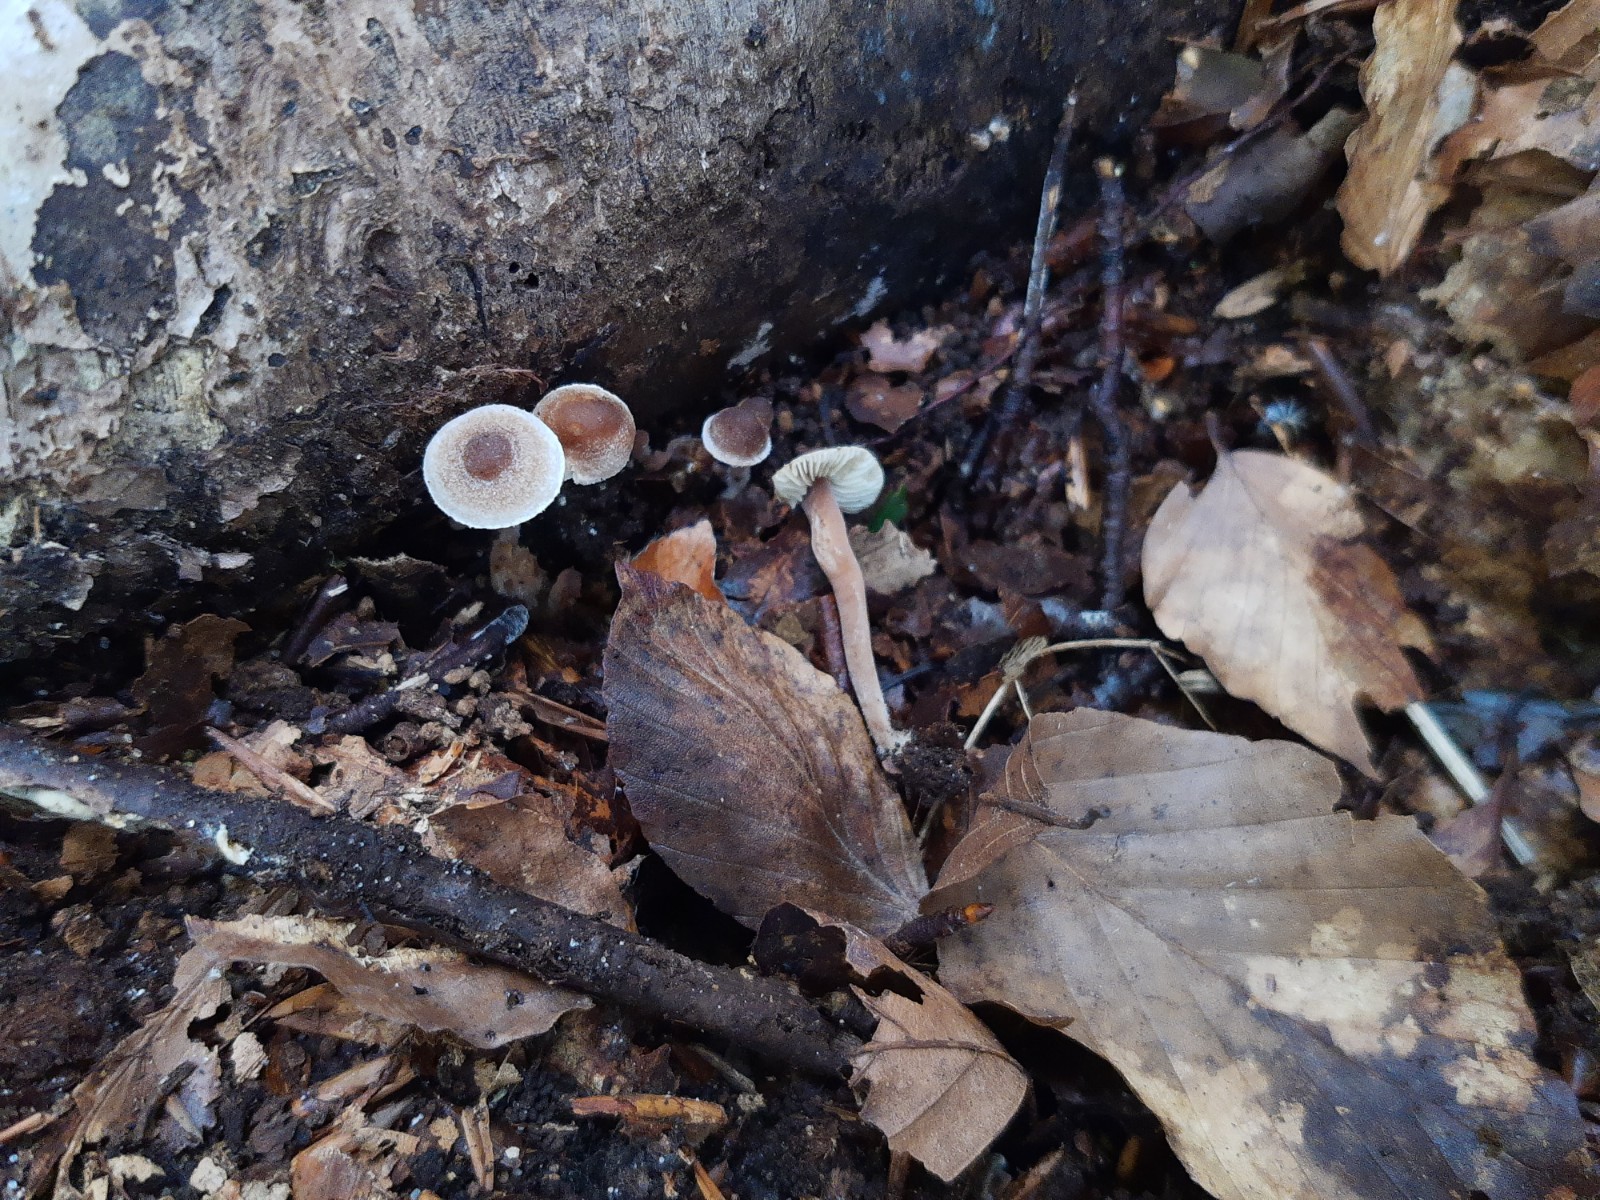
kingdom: Fungi
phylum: Basidiomycota
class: Agaricomycetes
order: Agaricales
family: Inocybaceae
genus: Inocybe
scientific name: Inocybe petiginosa
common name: liden trævlhat
